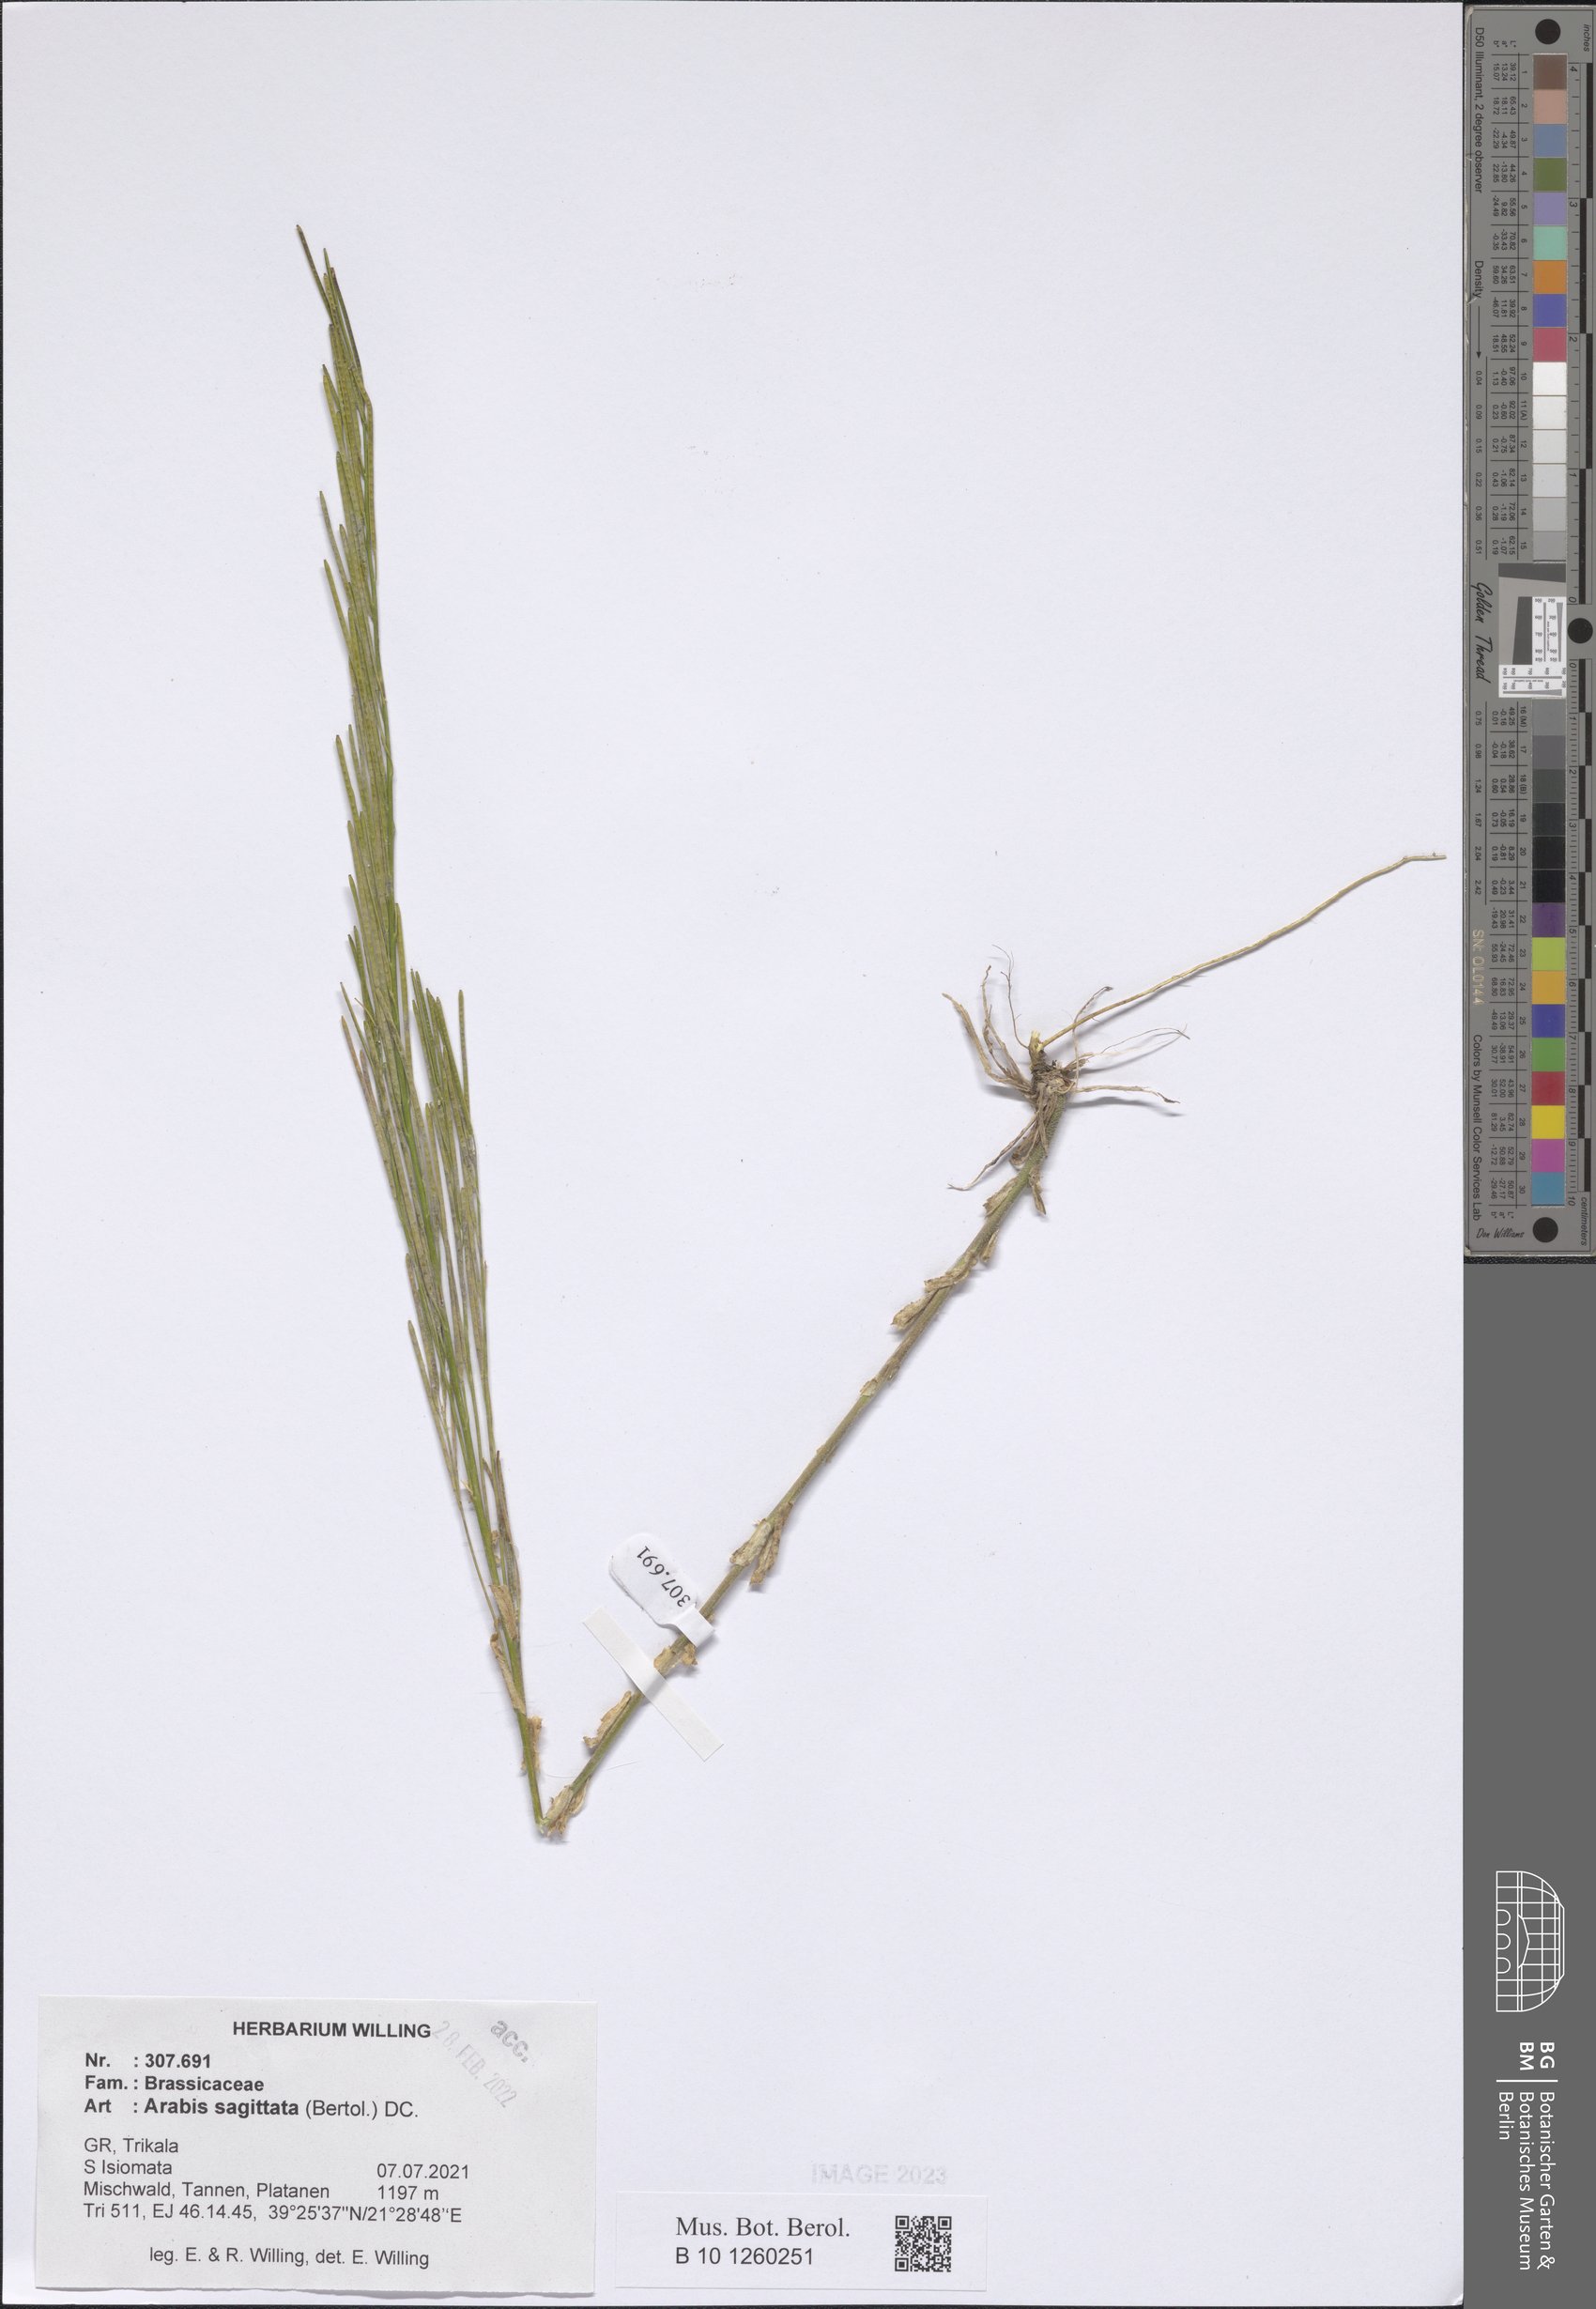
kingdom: Plantae
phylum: Tracheophyta
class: Magnoliopsida
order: Brassicales
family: Brassicaceae
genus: Arabis
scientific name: Arabis sagittata
